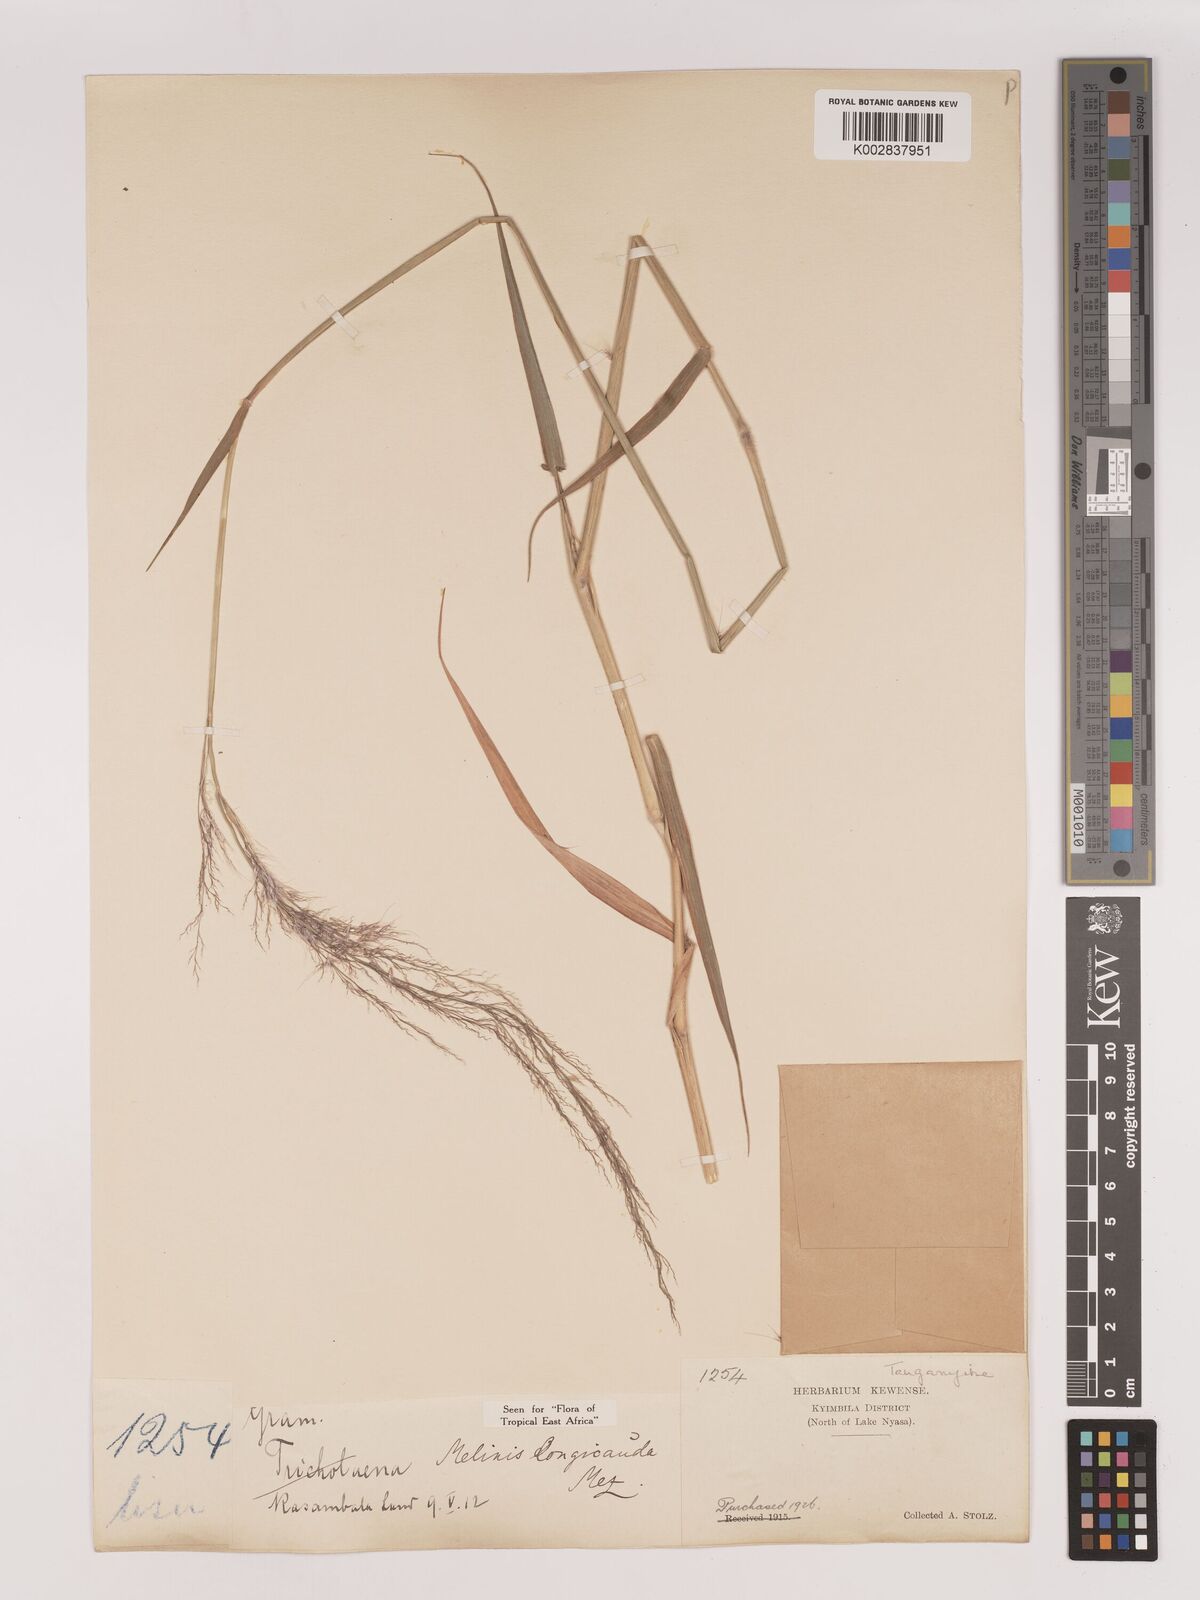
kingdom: Plantae
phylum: Tracheophyta
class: Liliopsida
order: Poales
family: Poaceae
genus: Melinis
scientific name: Melinis ambigua
